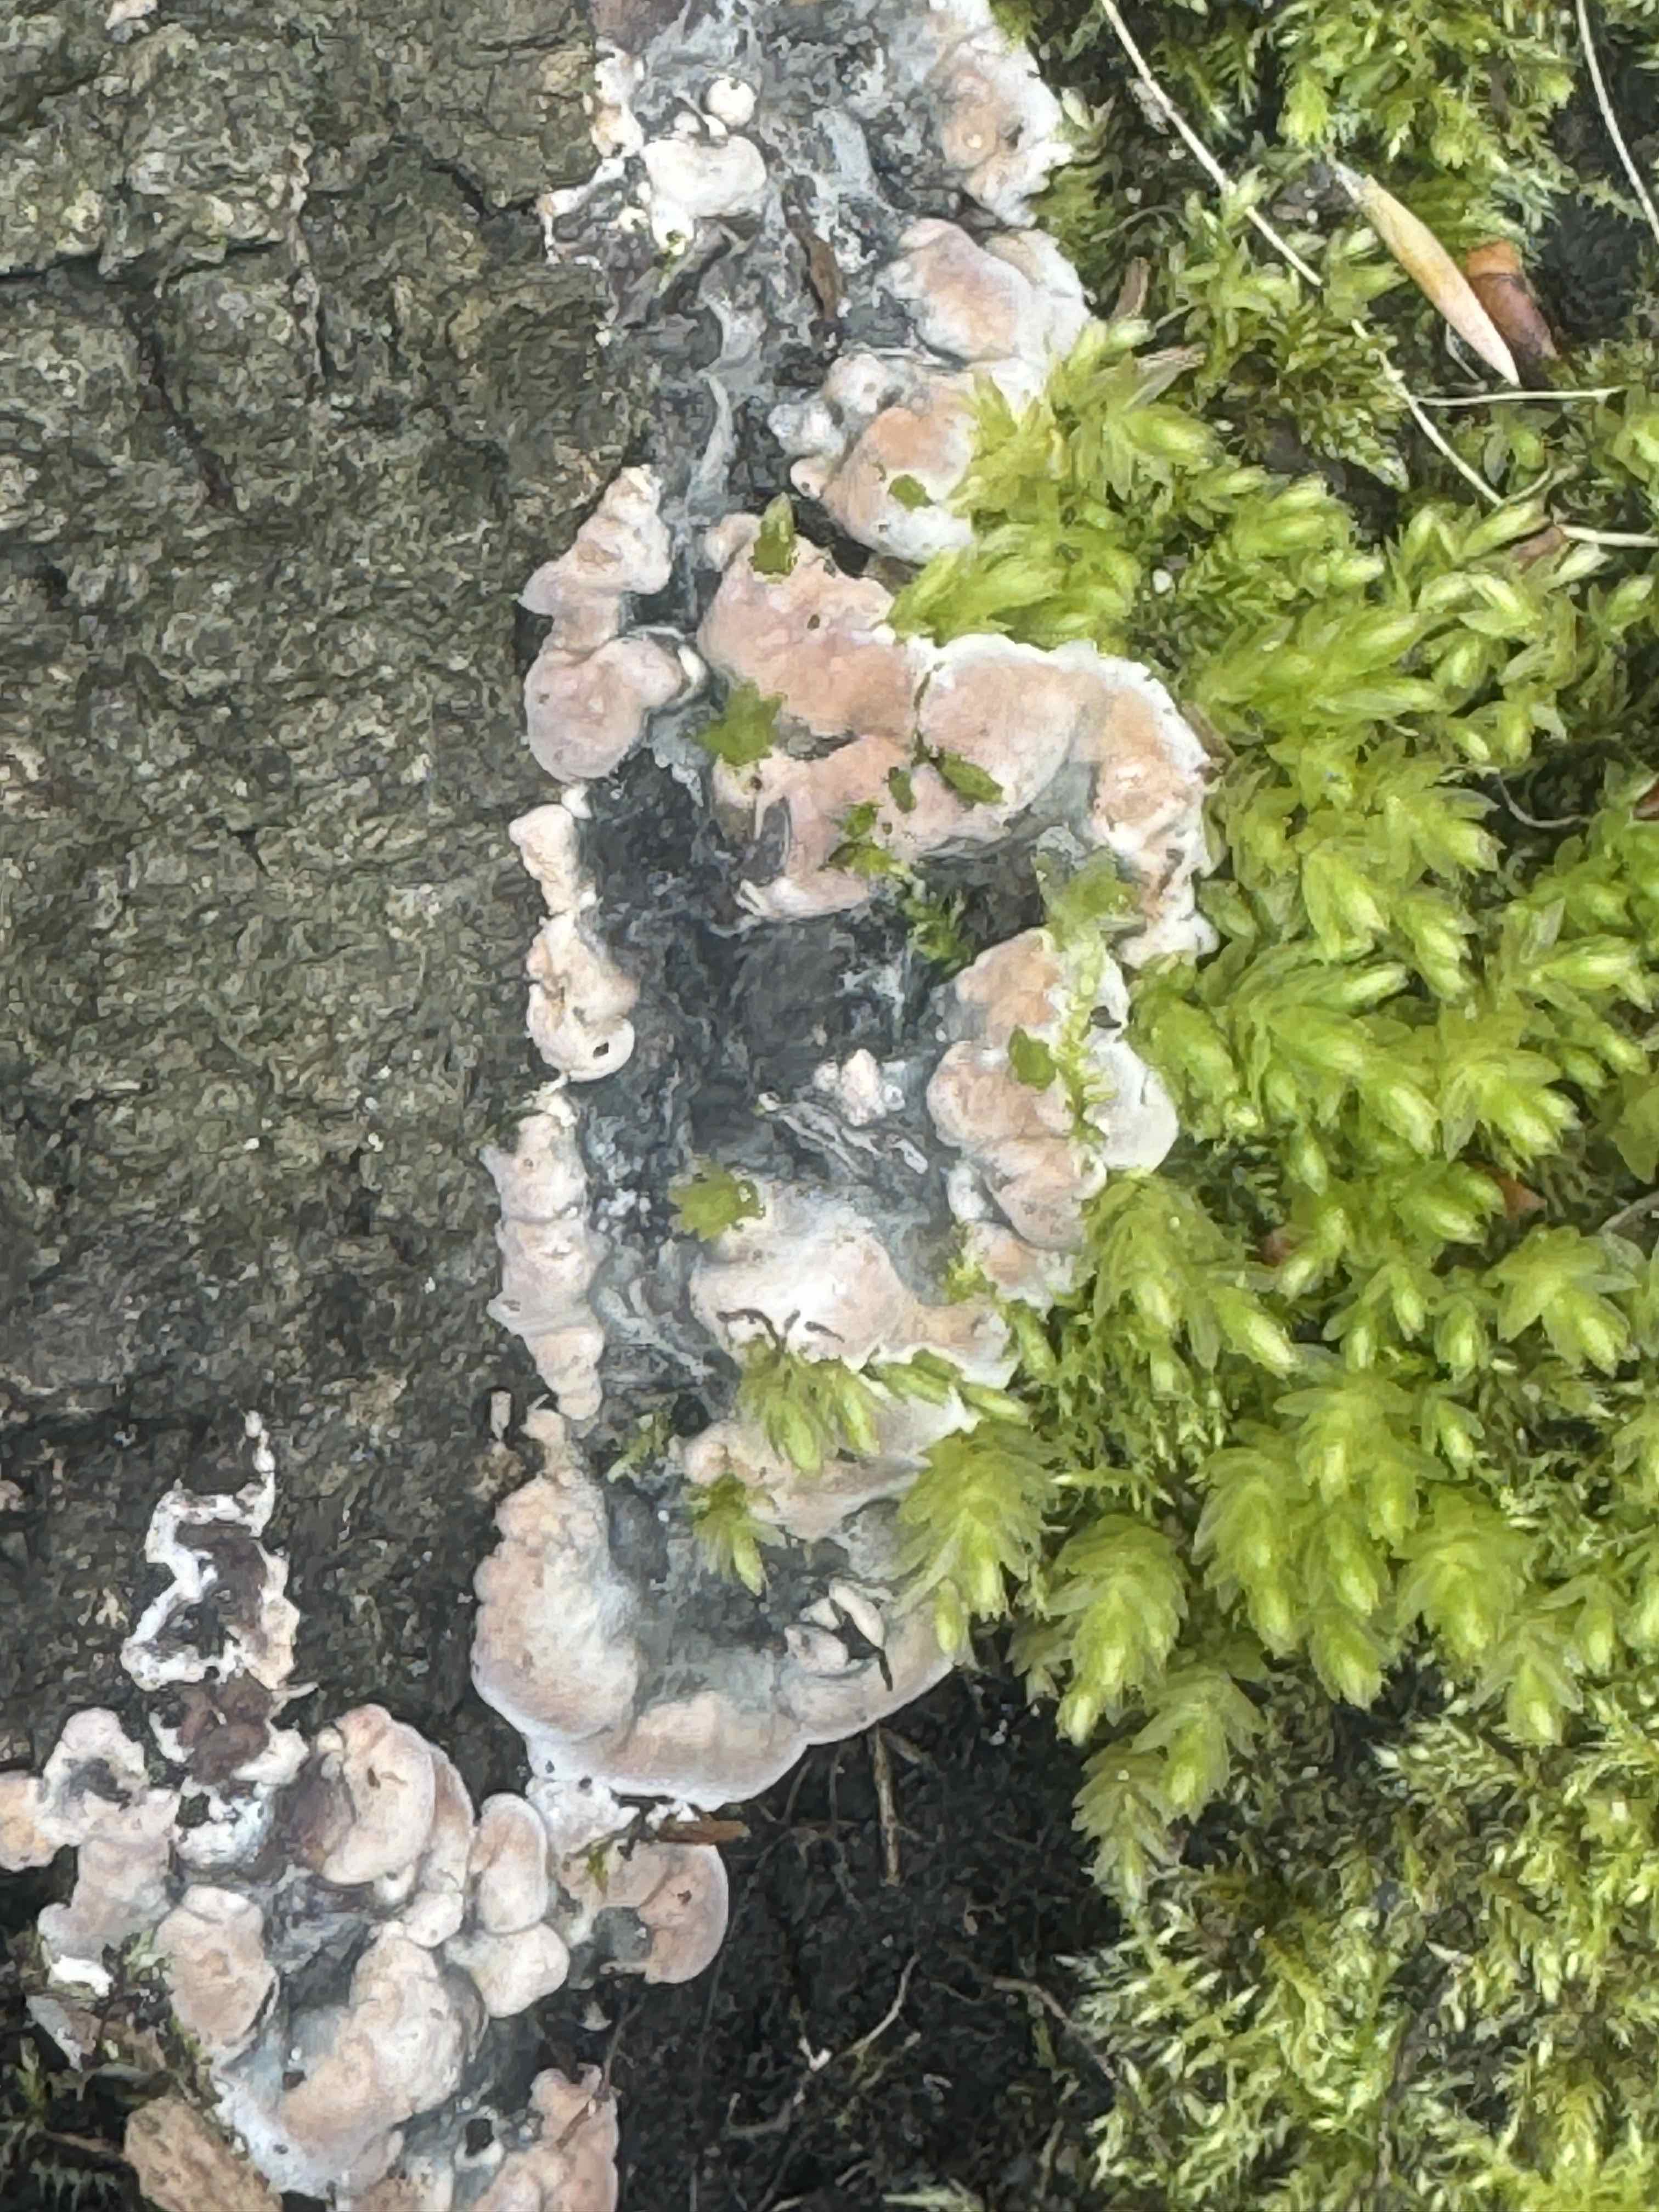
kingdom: Fungi
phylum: Ascomycota
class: Sordariomycetes
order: Xylariales
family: Xylariaceae
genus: Kretzschmaria
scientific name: Kretzschmaria deusta
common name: stor kulsvamp
